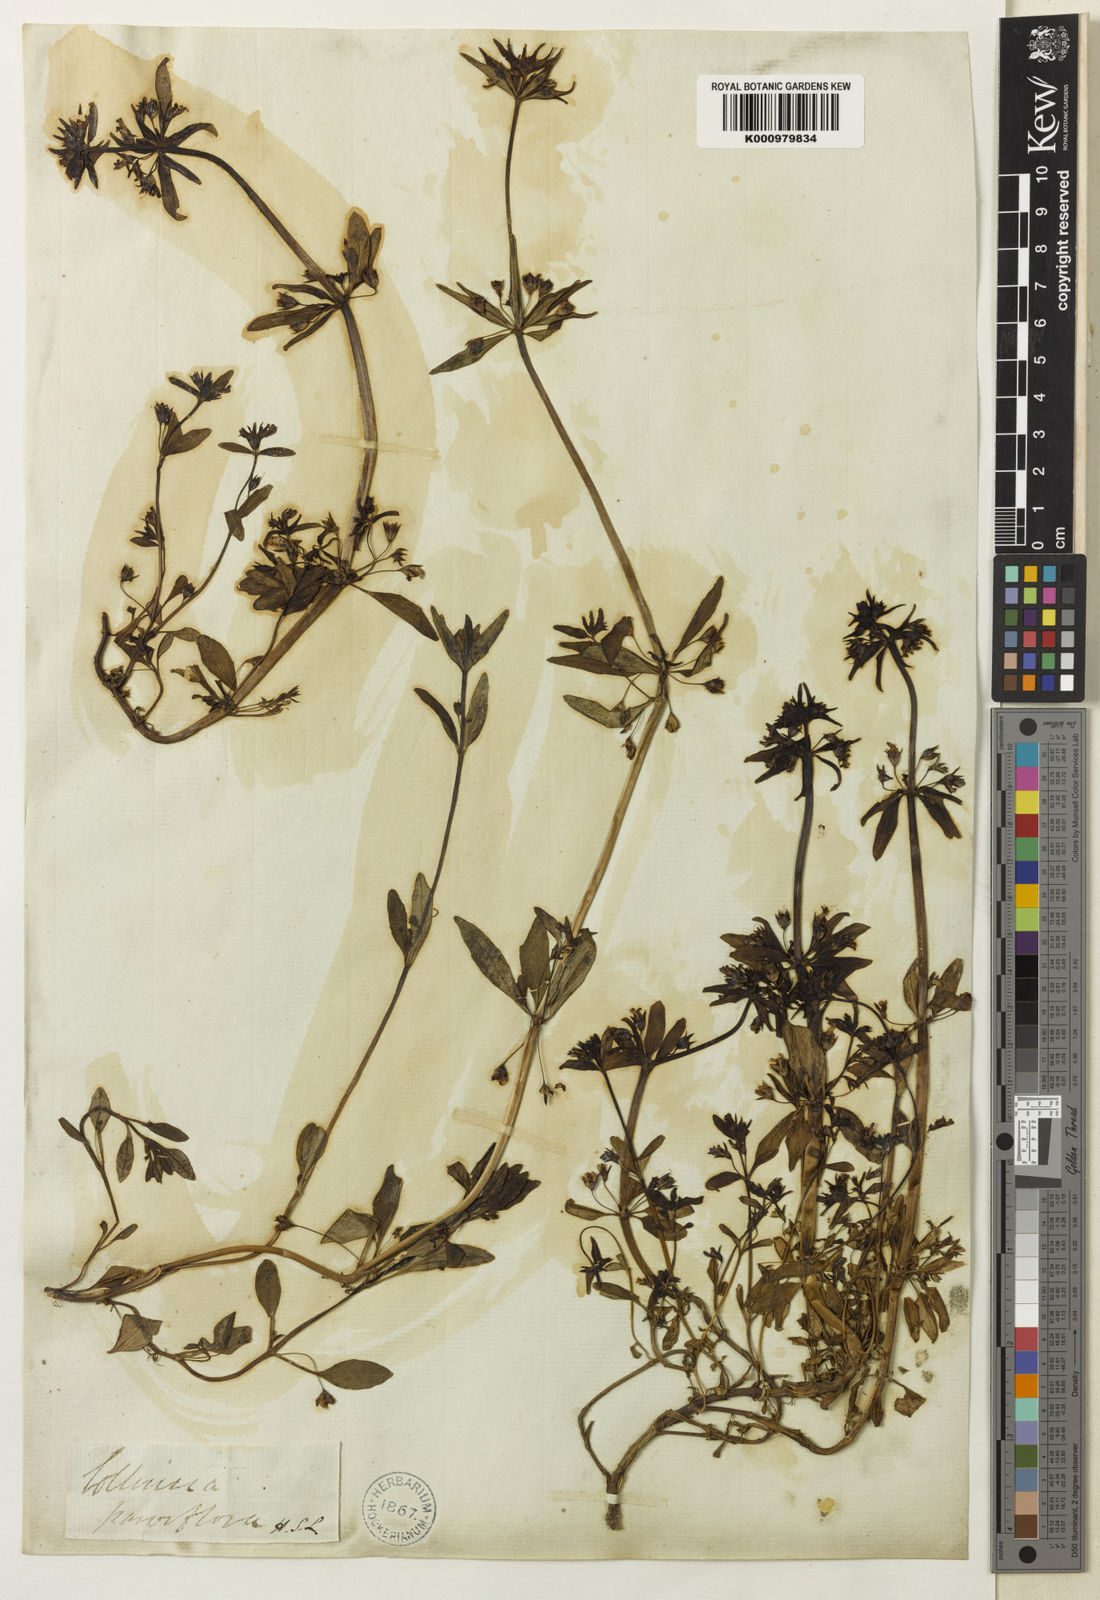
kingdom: Plantae
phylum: Tracheophyta
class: Magnoliopsida
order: Lamiales
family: Plantaginaceae
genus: Collinsia
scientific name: Collinsia parviflora
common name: Blue-lips
